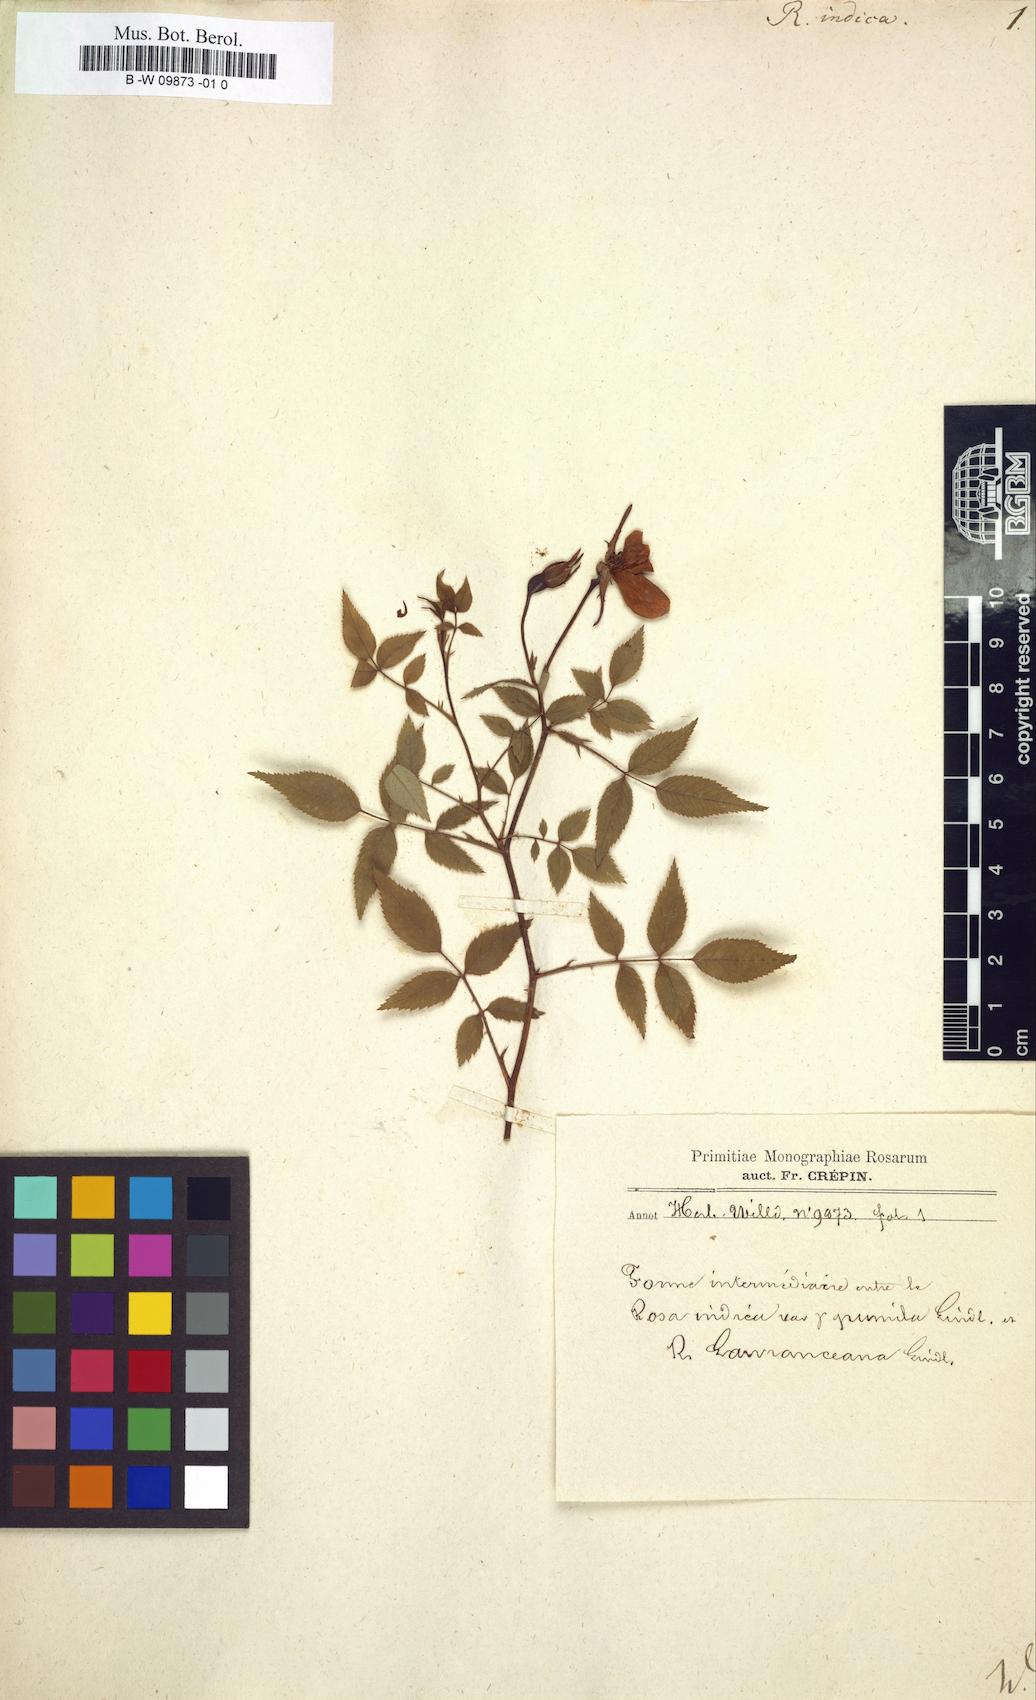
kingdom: Plantae
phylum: Tracheophyta
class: Magnoliopsida
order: Rosales
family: Rosaceae
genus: Rosa
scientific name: Rosa indica
